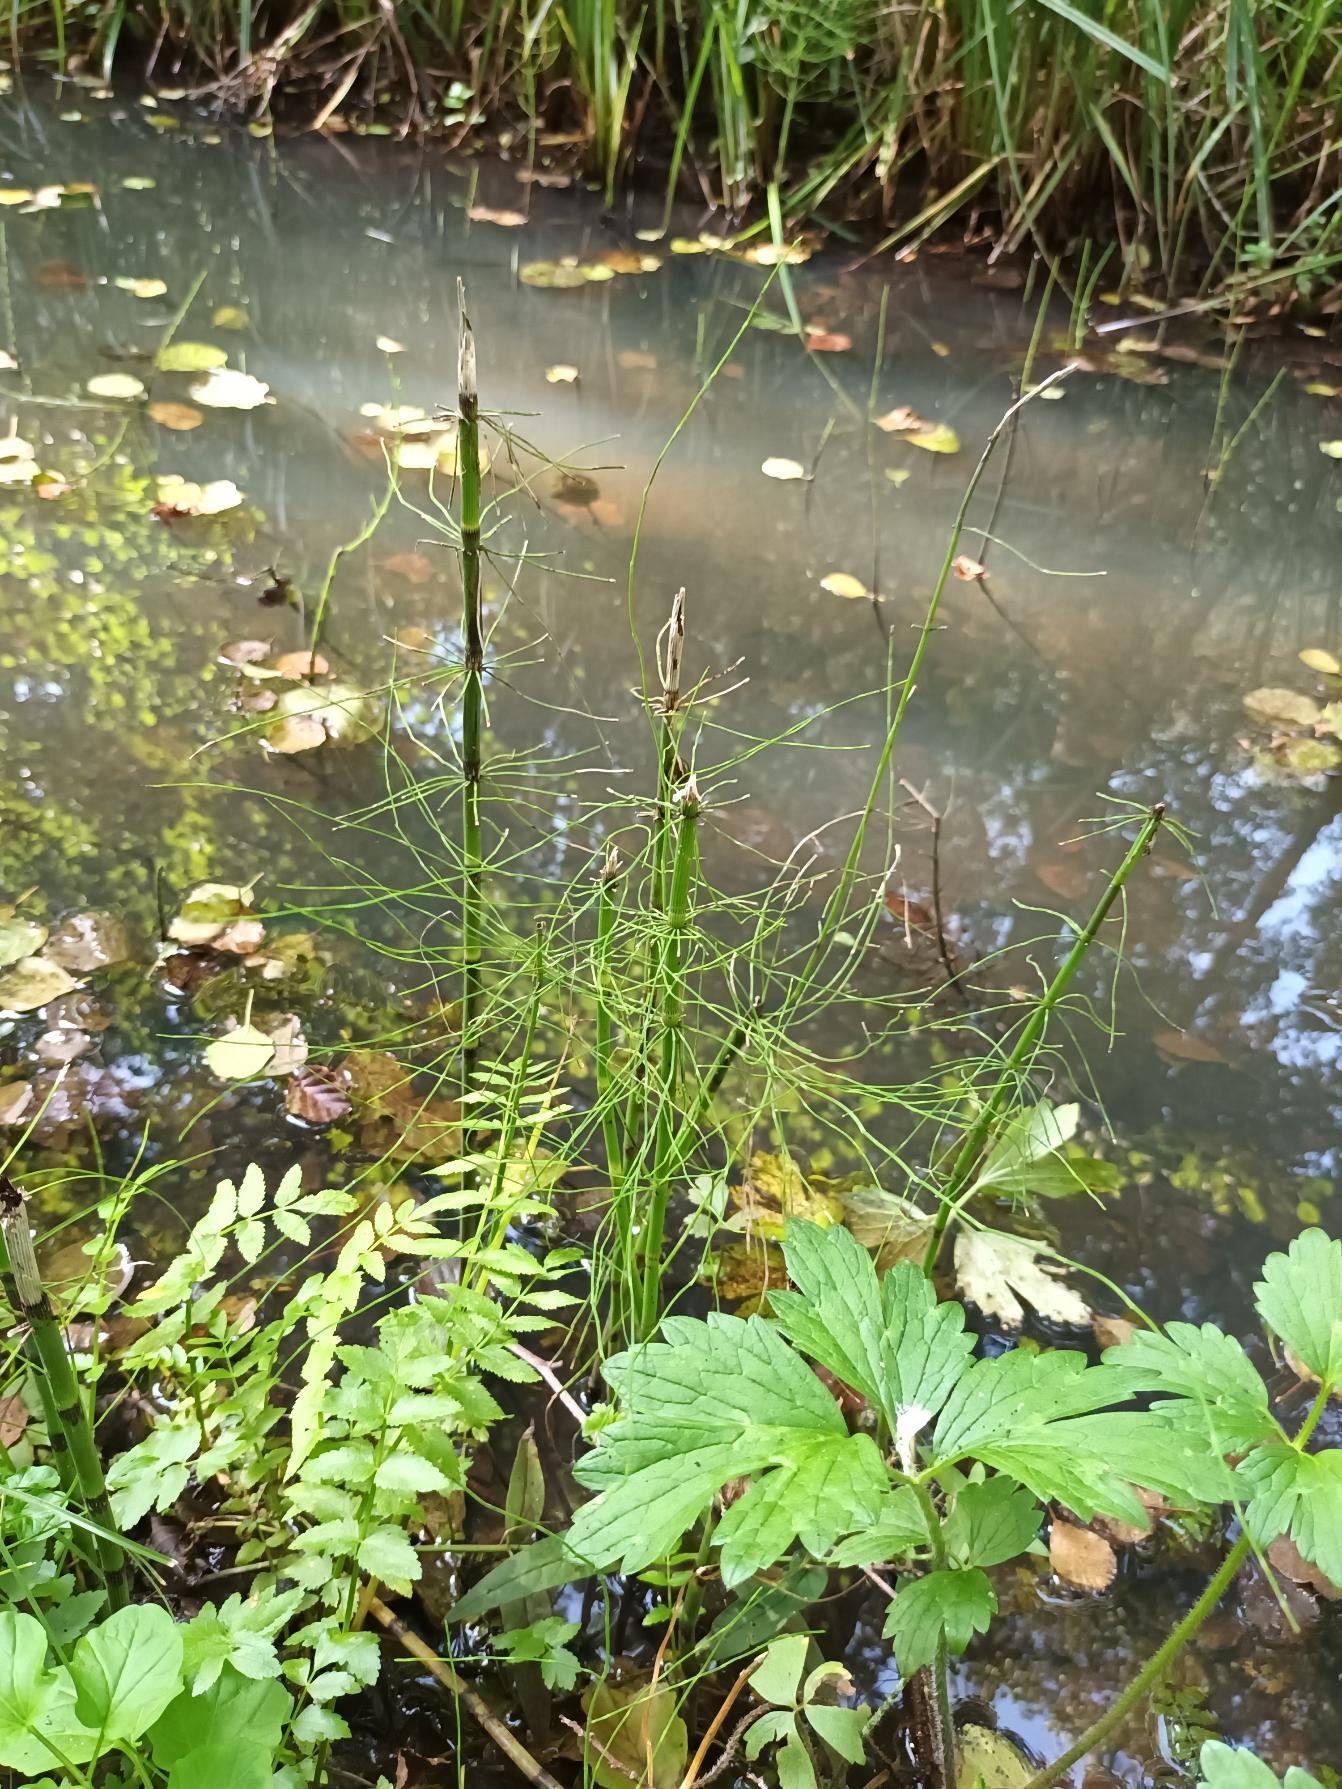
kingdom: Plantae
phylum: Tracheophyta
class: Polypodiopsida
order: Equisetales
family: Equisetaceae
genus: Equisetum
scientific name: Equisetum fluviatile
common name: Dynd-padderok
